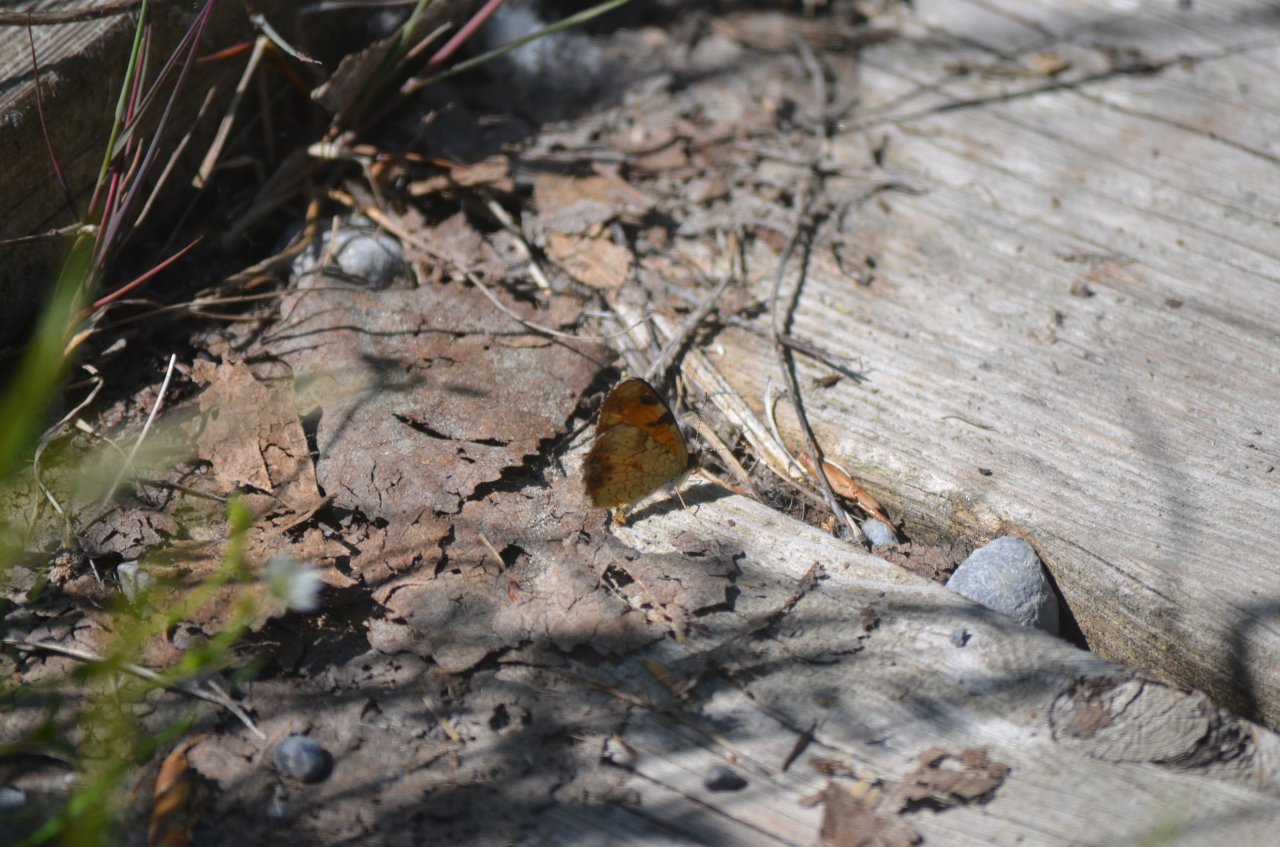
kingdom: Animalia
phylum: Arthropoda
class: Insecta
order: Lepidoptera
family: Nymphalidae
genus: Phyciodes
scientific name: Phyciodes tharos
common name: Northern Crescent
